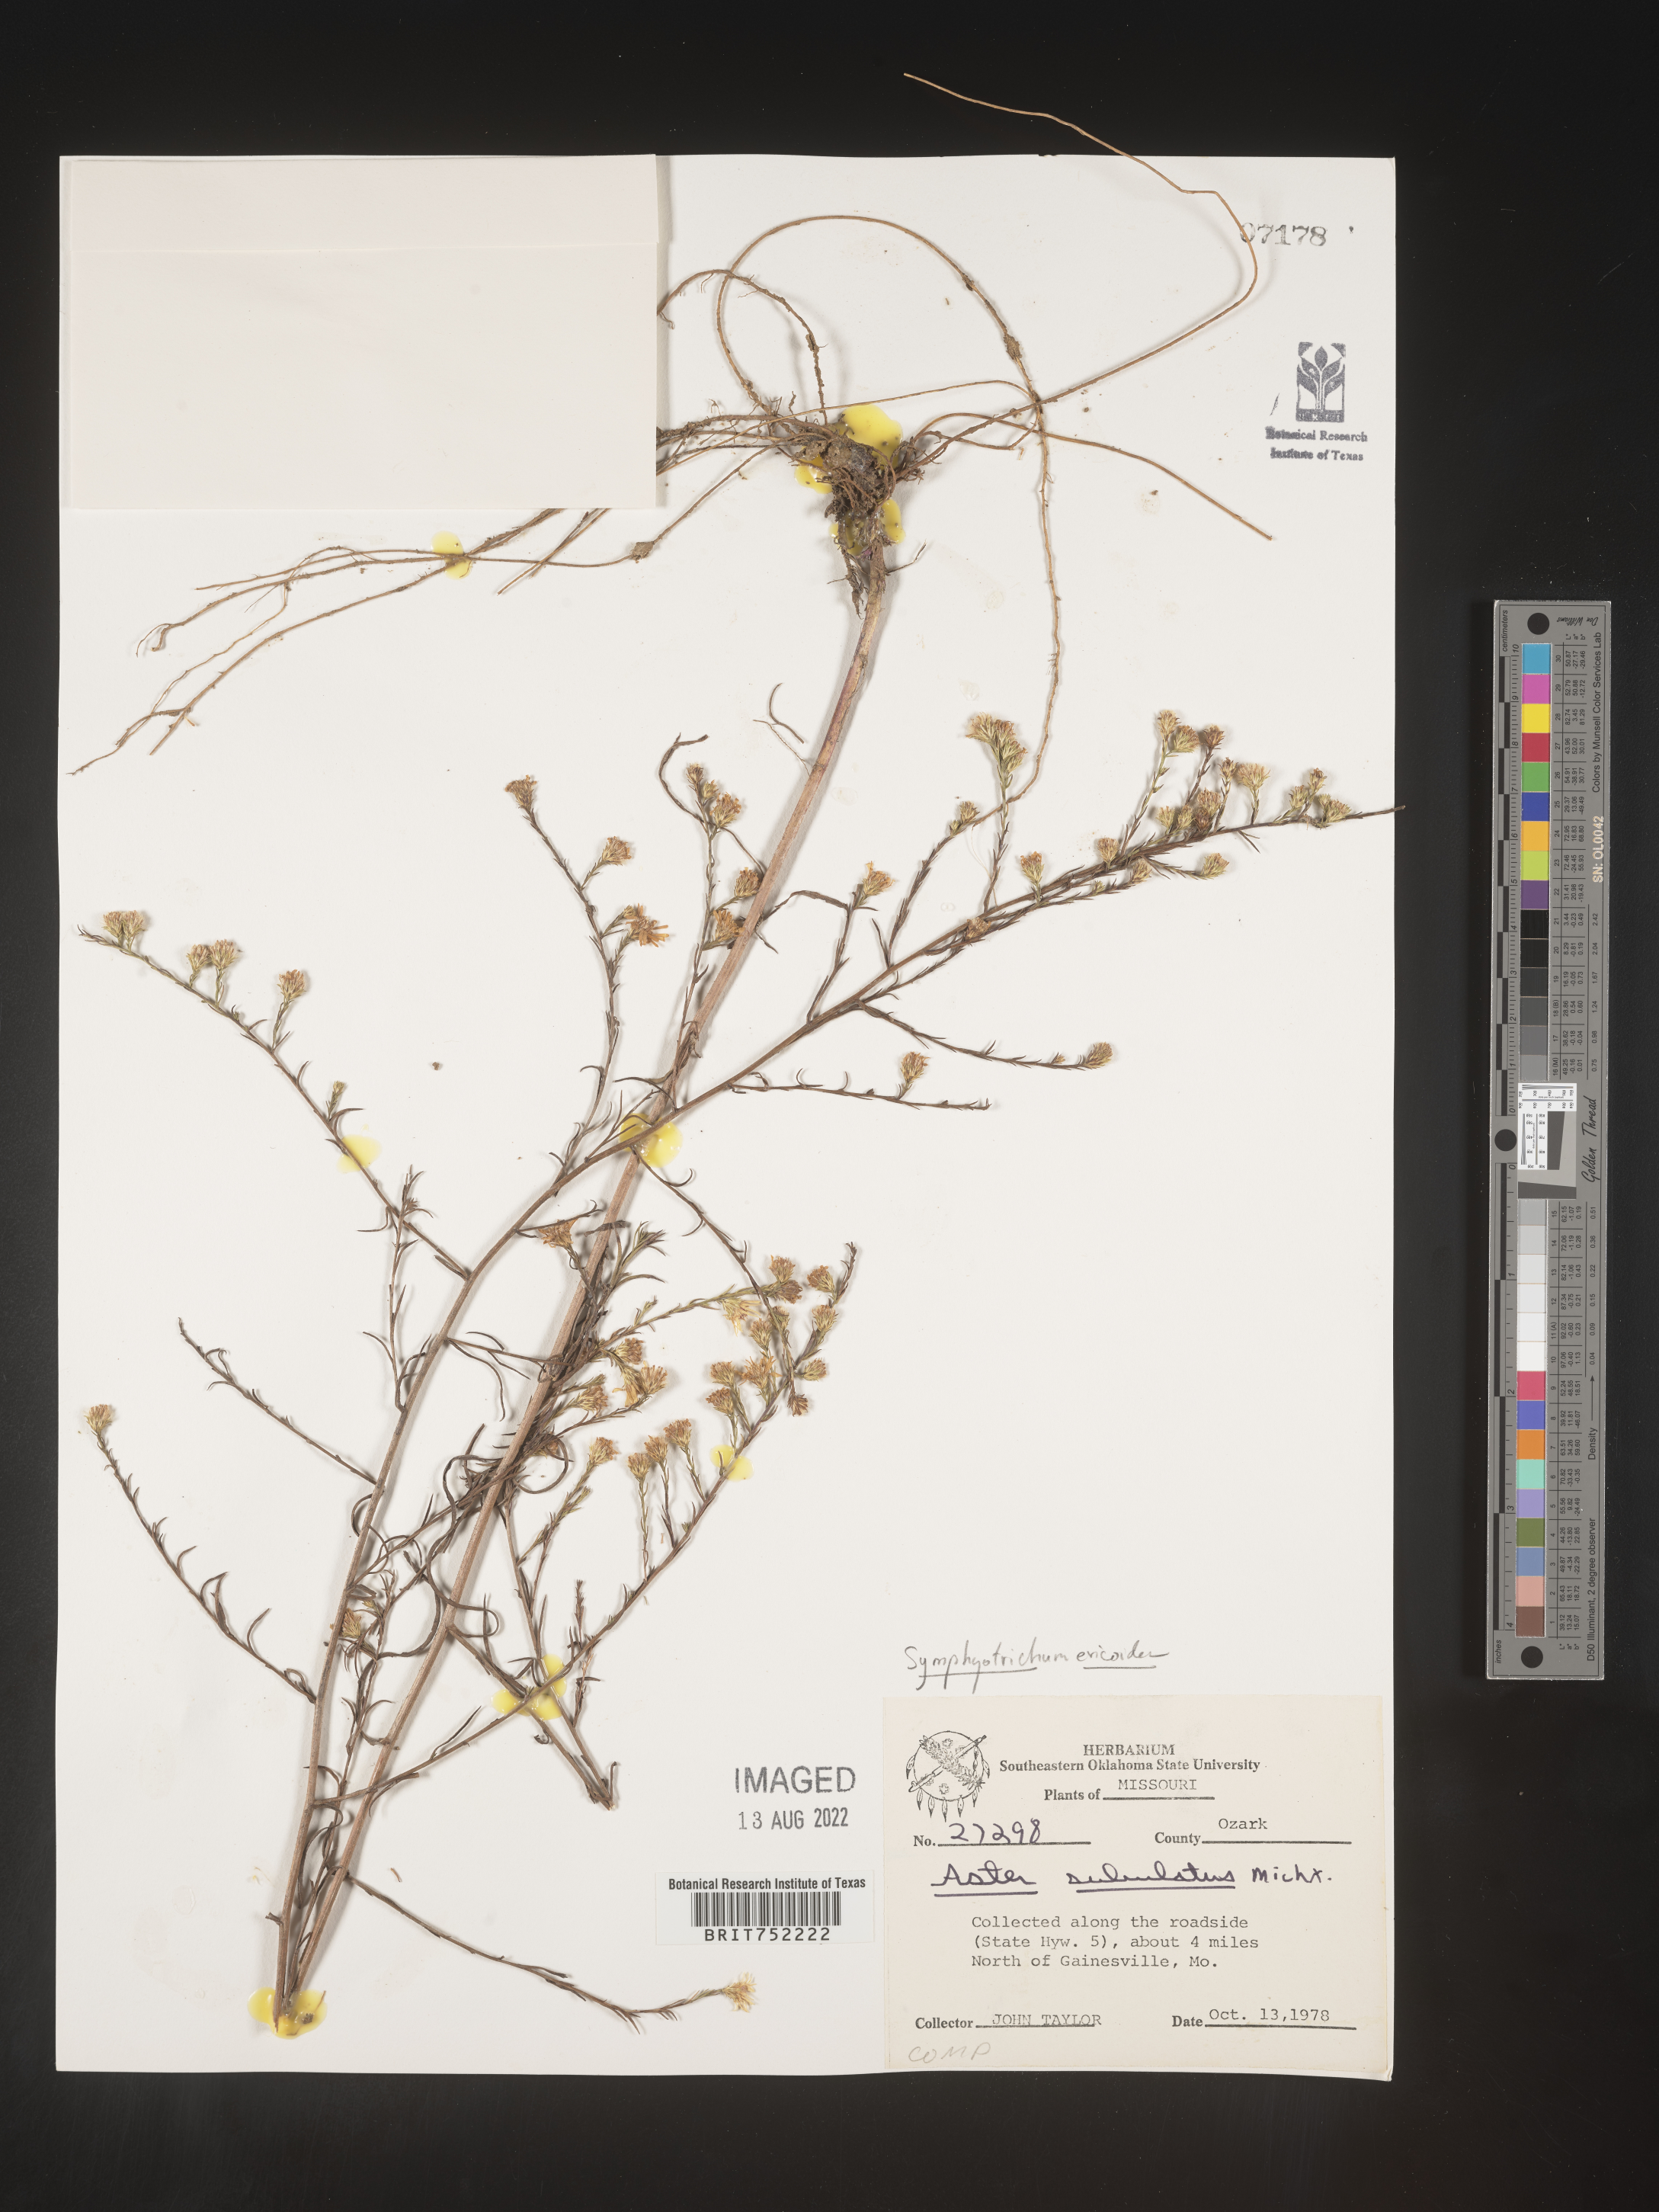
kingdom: Plantae
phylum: Tracheophyta
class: Magnoliopsida
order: Asterales
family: Asteraceae
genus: Symphyotrichum
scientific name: Symphyotrichum ericoides
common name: Heath aster
